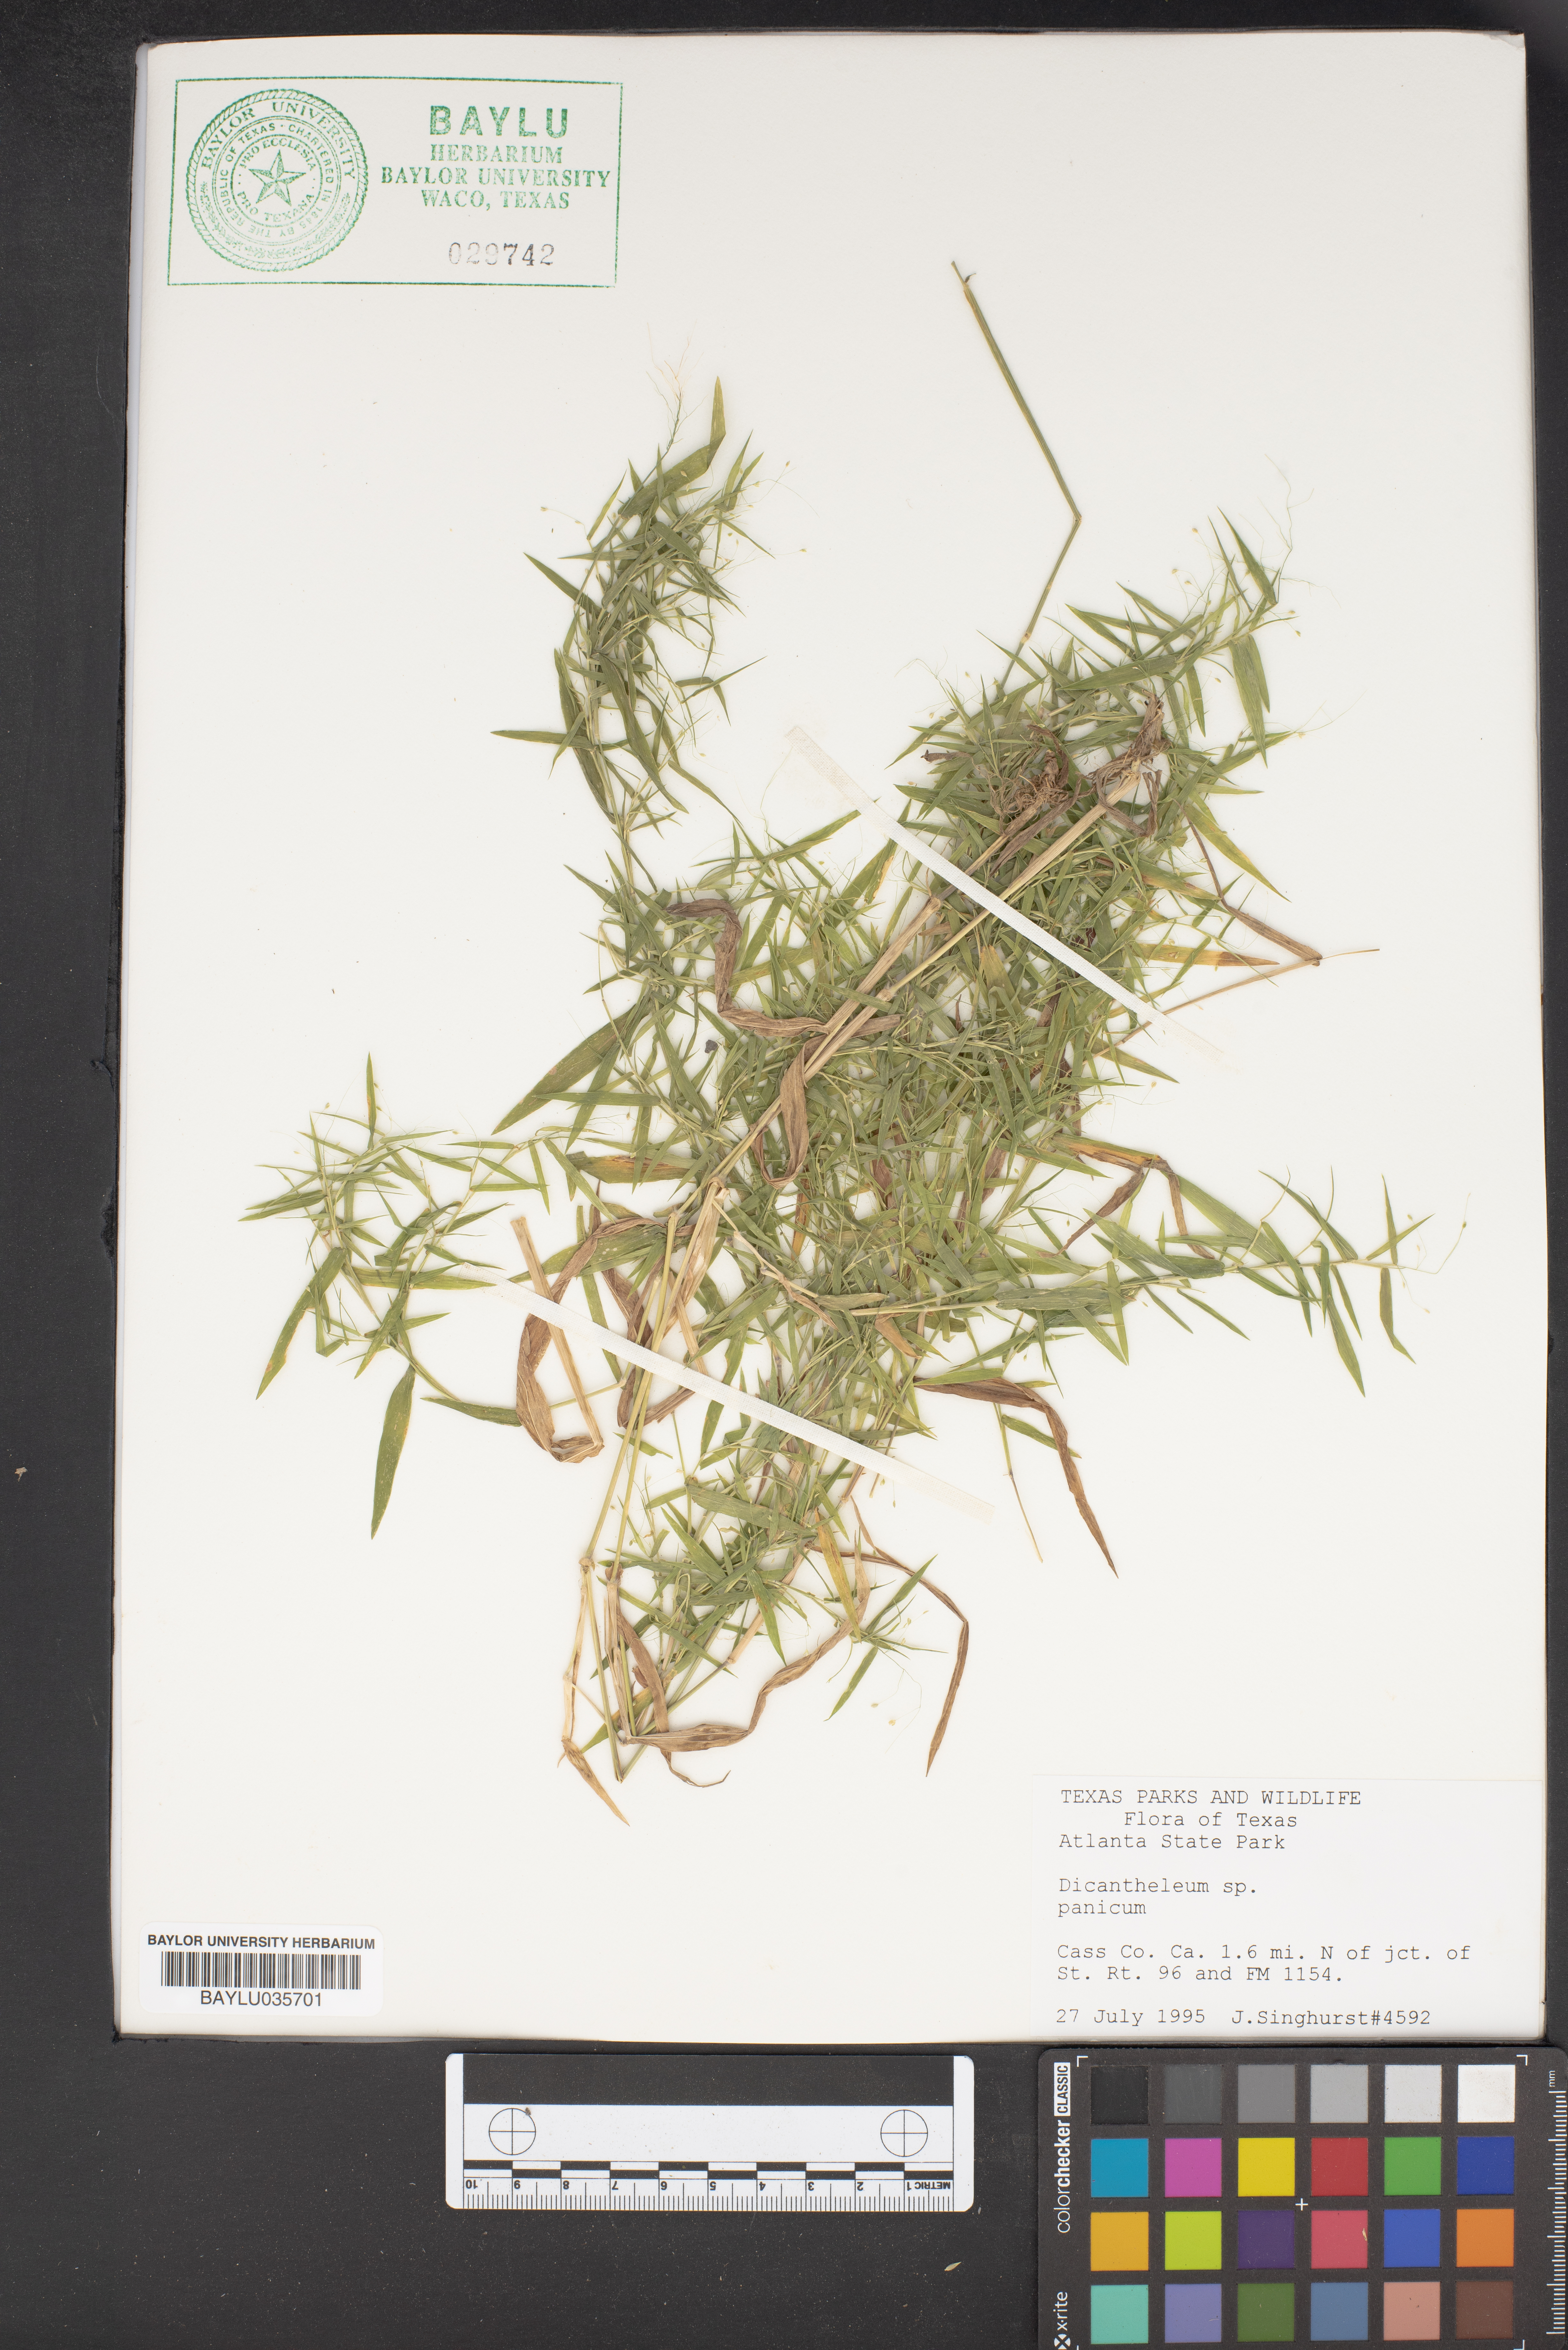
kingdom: Plantae
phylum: Tracheophyta
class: Liliopsida
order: Poales
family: Poaceae
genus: Dichanthelium
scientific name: Dichanthelium
